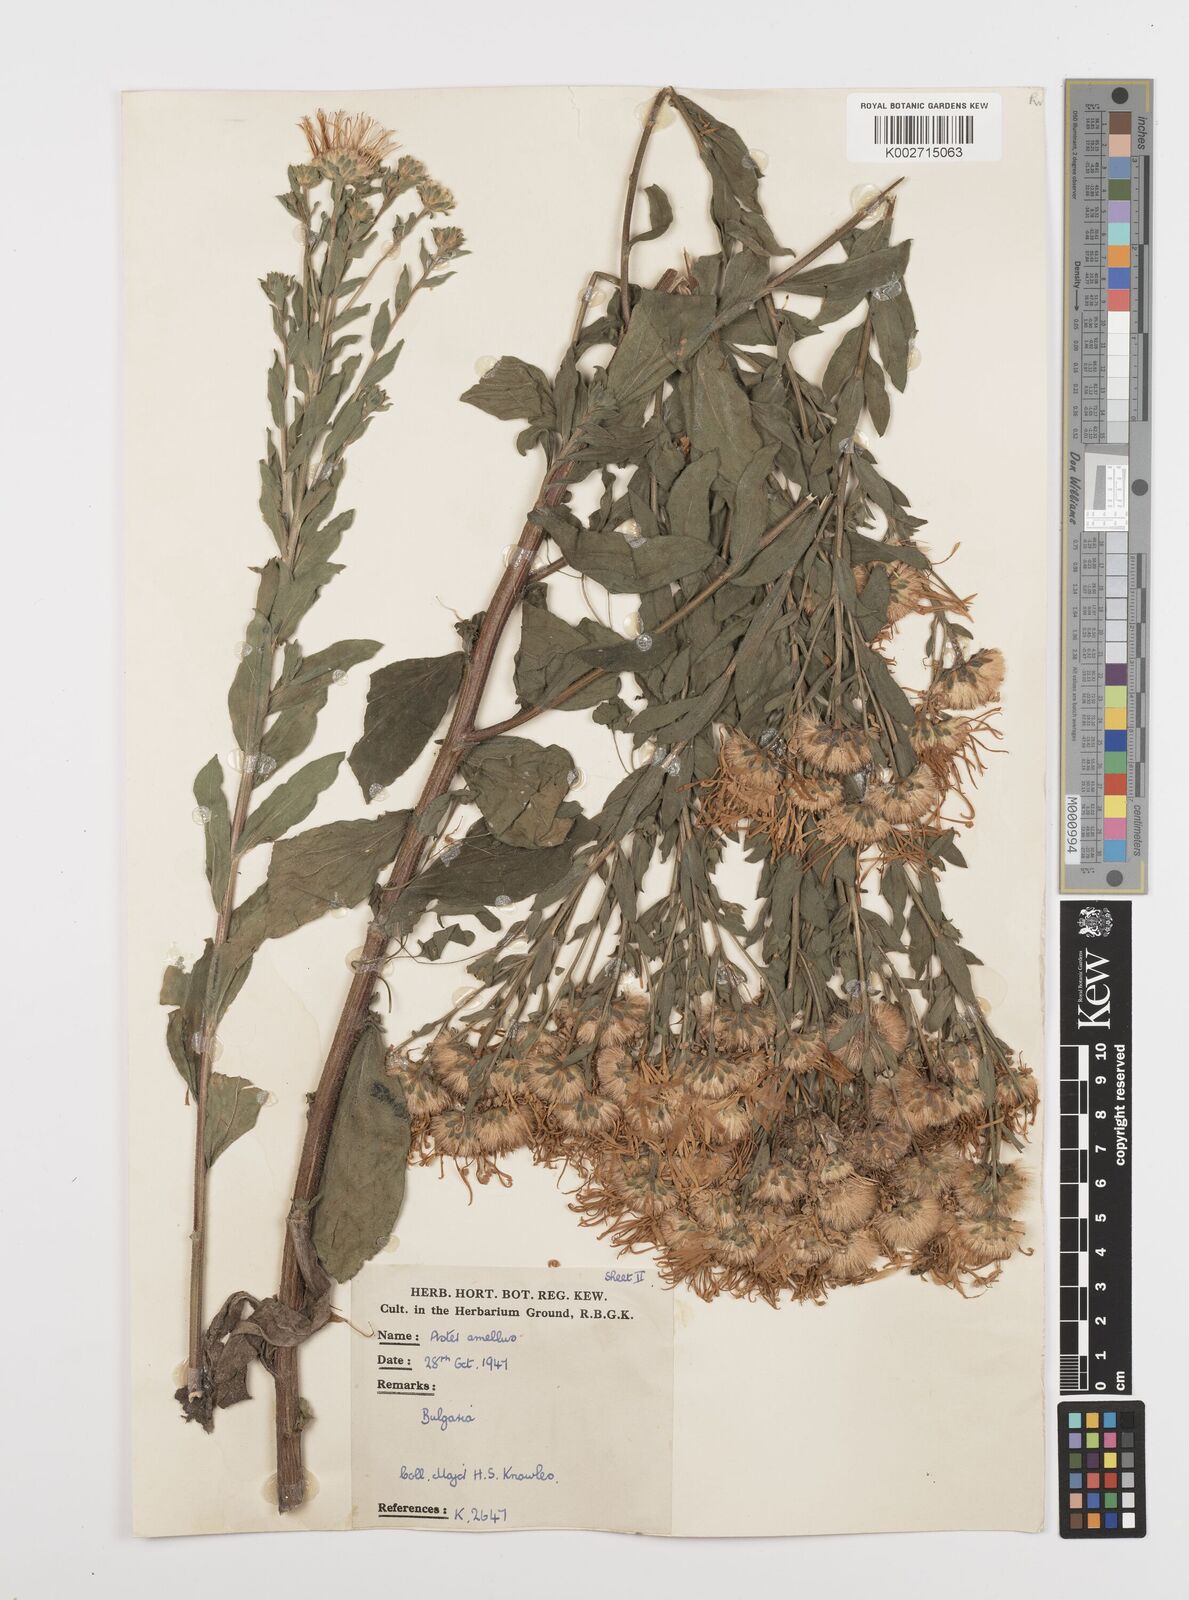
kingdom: Plantae
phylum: Tracheophyta
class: Magnoliopsida
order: Asterales
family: Asteraceae
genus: Aster
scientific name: Aster
